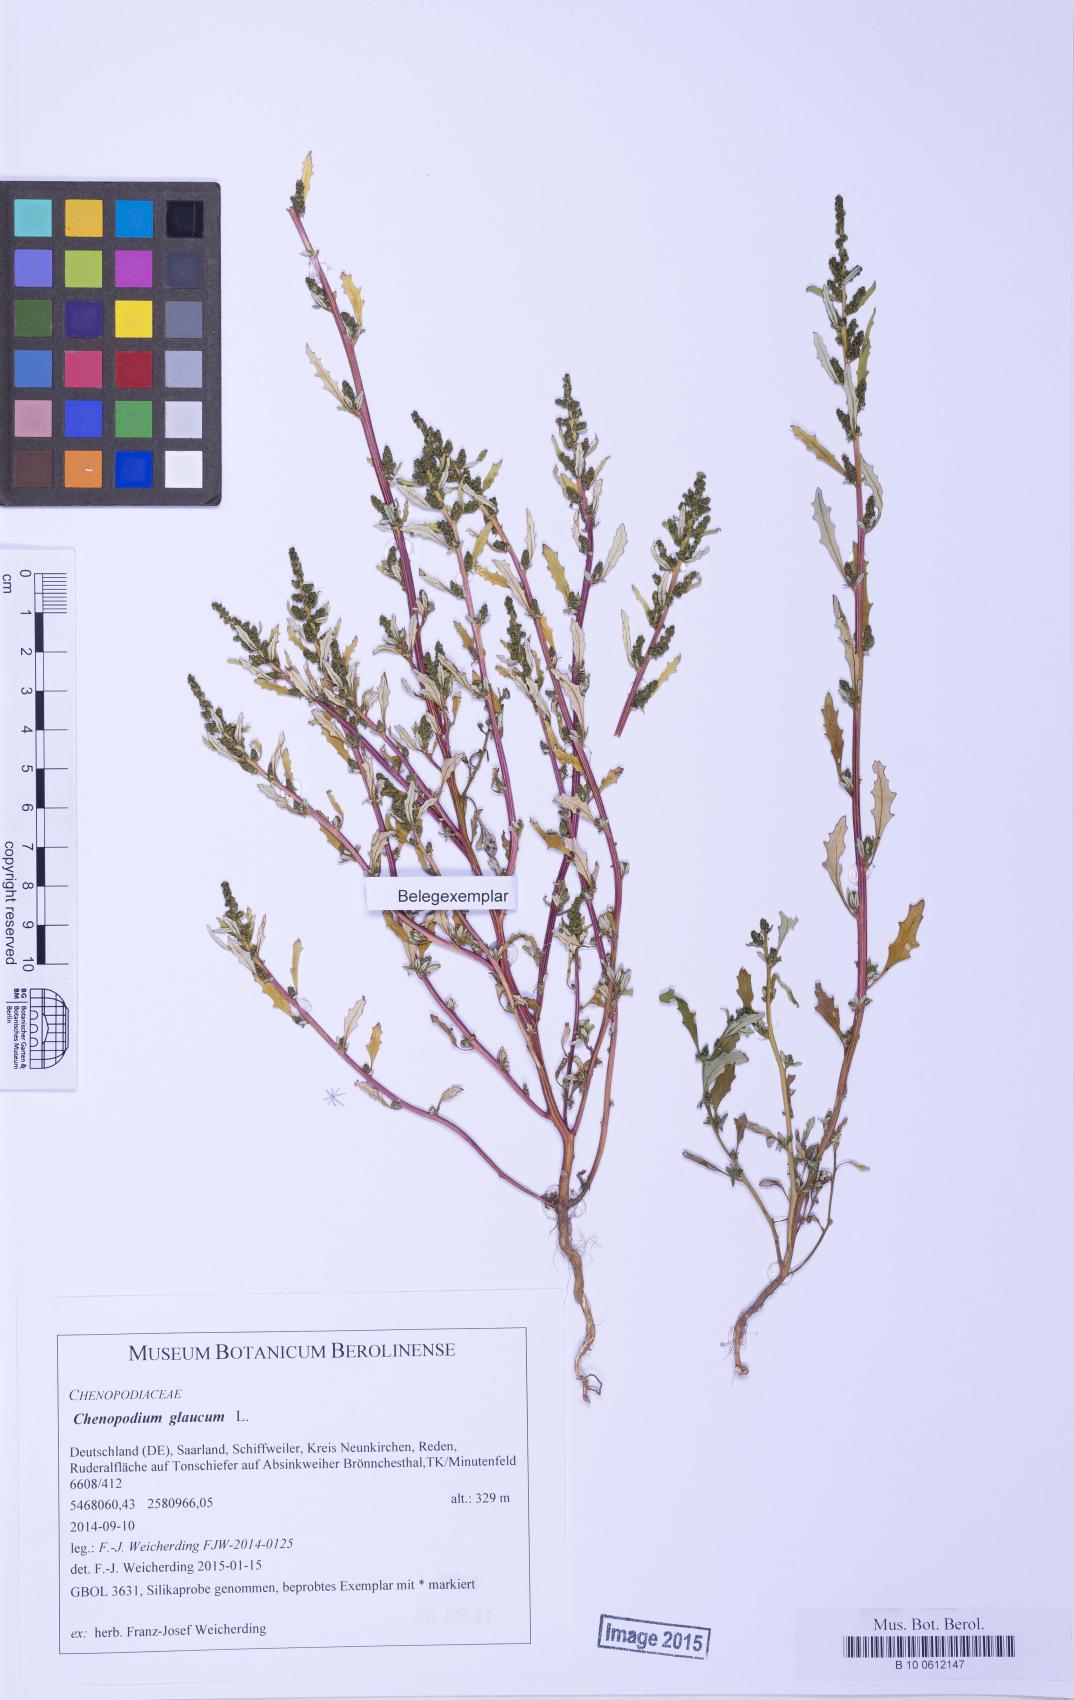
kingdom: Plantae
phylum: Tracheophyta
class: Magnoliopsida
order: Caryophyllales
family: Amaranthaceae
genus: Oxybasis
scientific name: Oxybasis glauca
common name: Glaucous goosefoot
